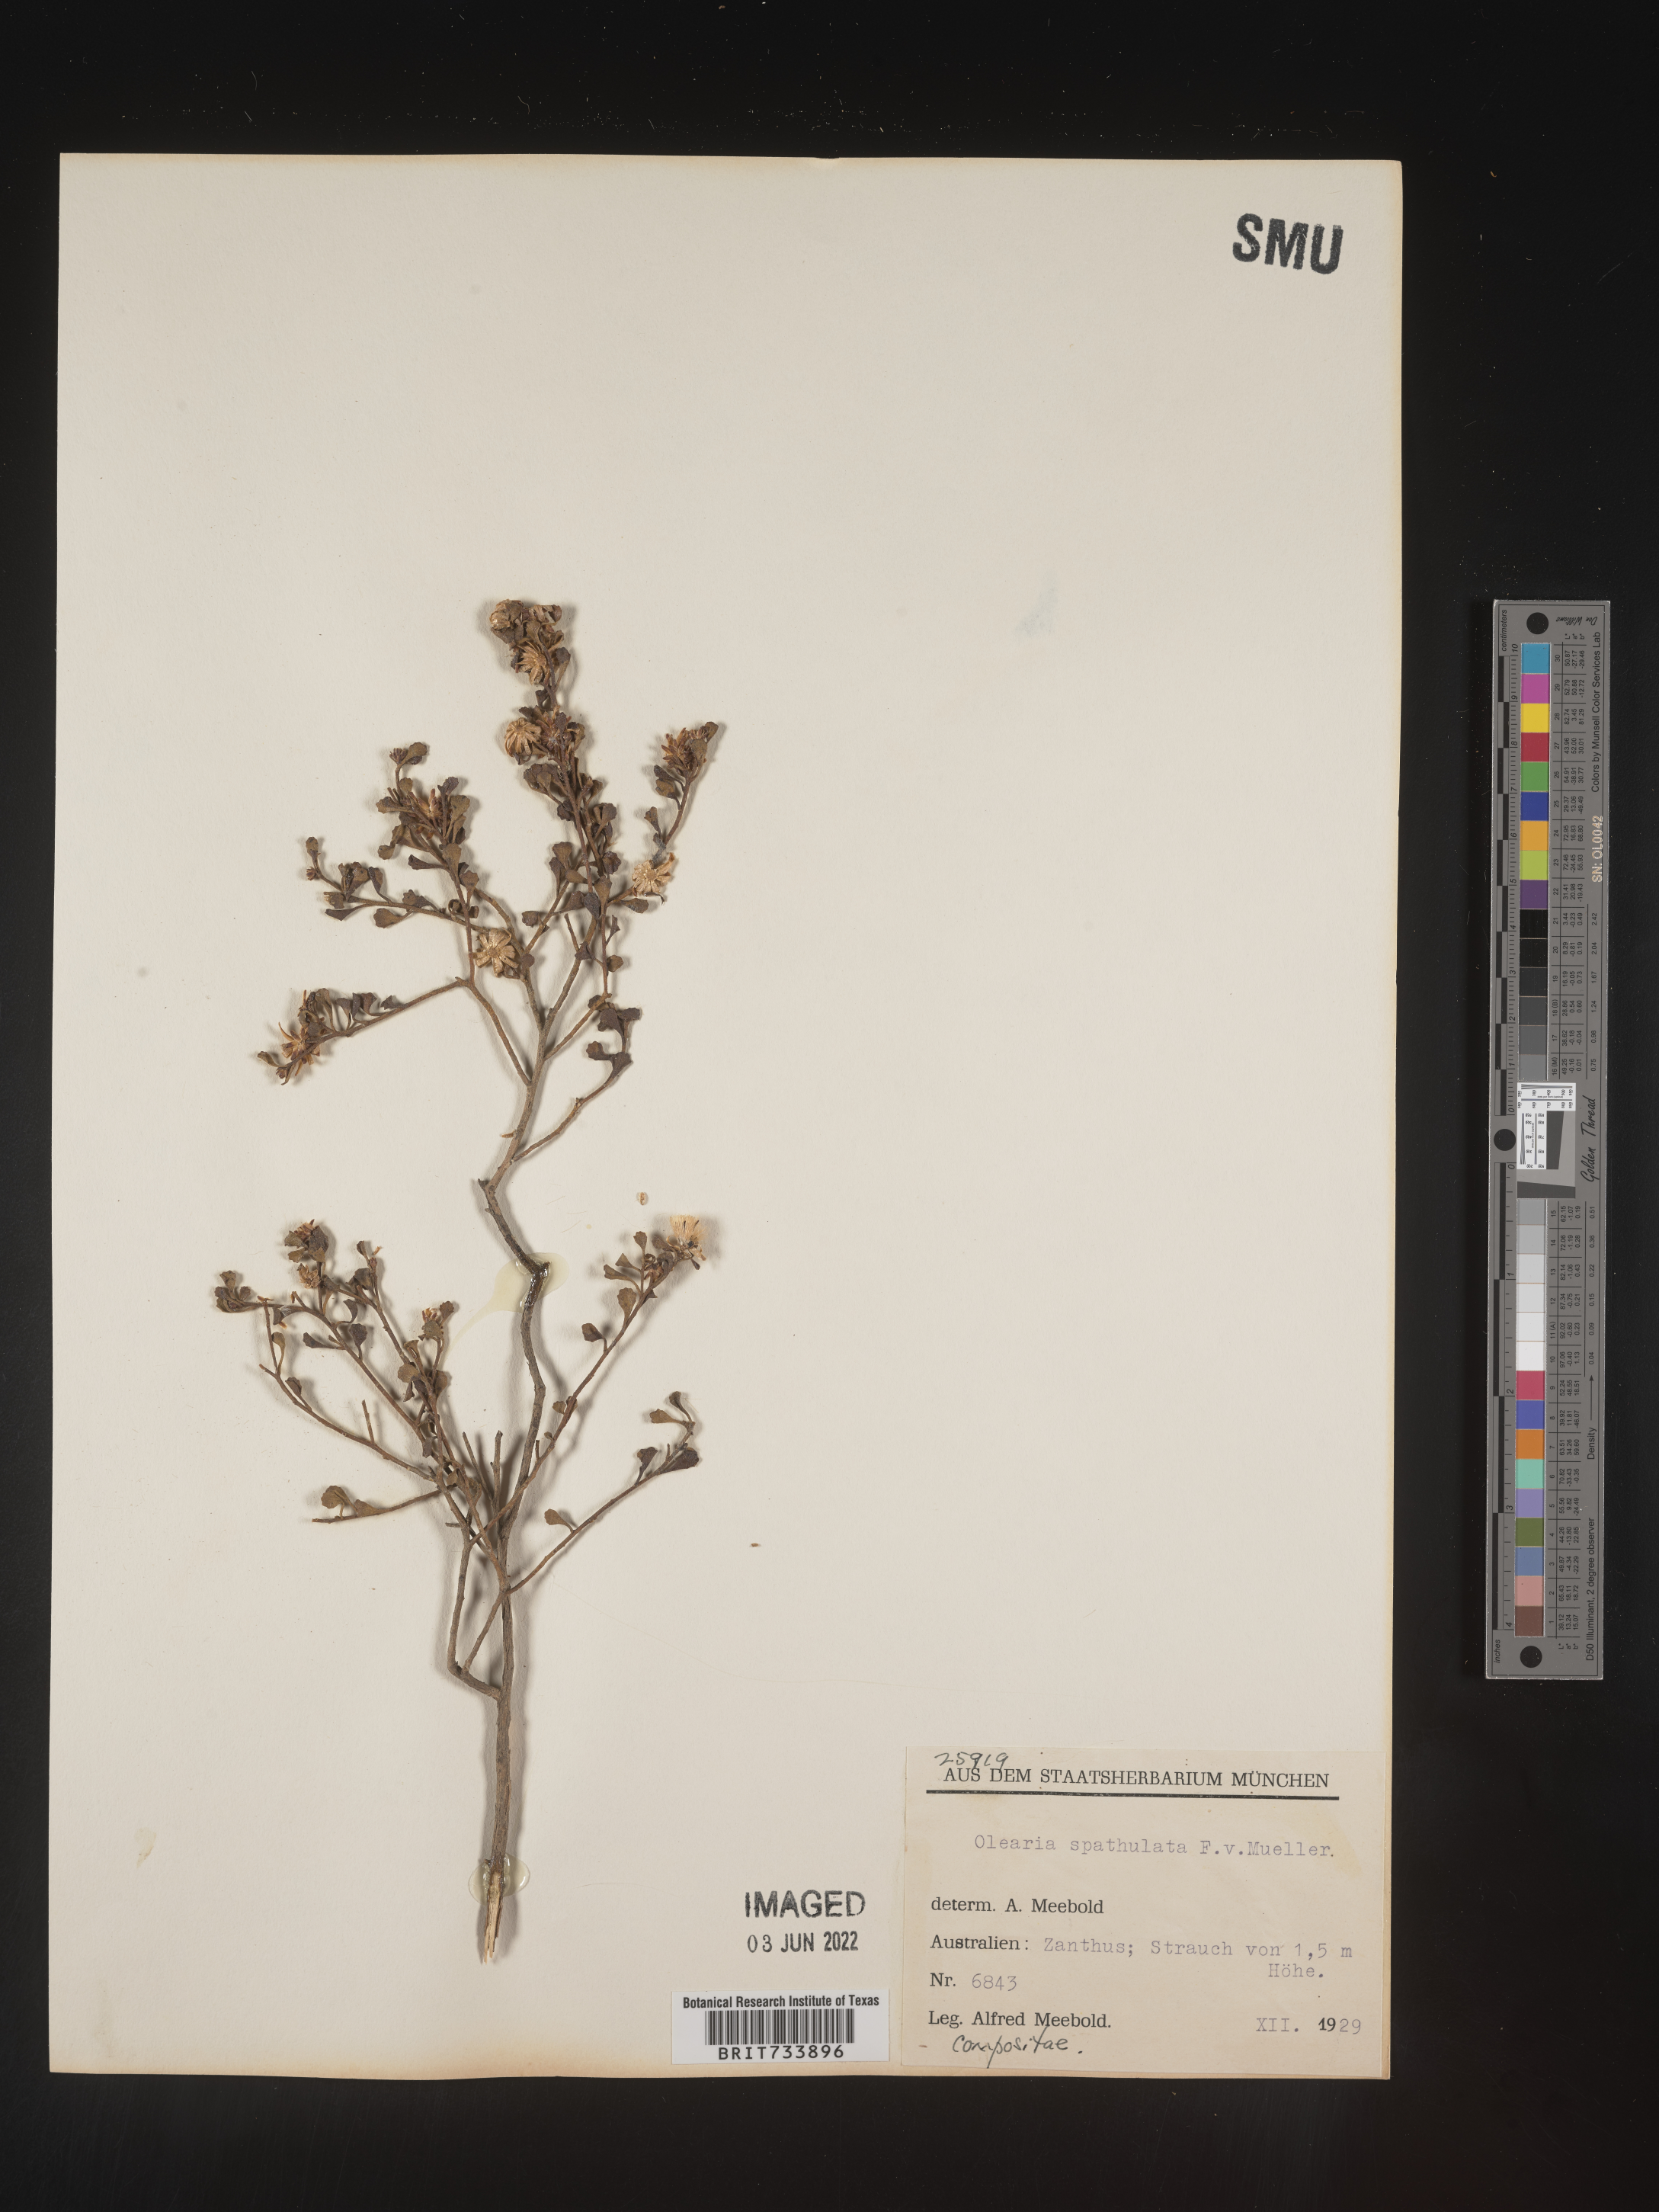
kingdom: Plantae
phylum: Tracheophyta
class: Magnoliopsida
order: Asterales
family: Asteraceae
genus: Olearia
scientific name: Olearia
